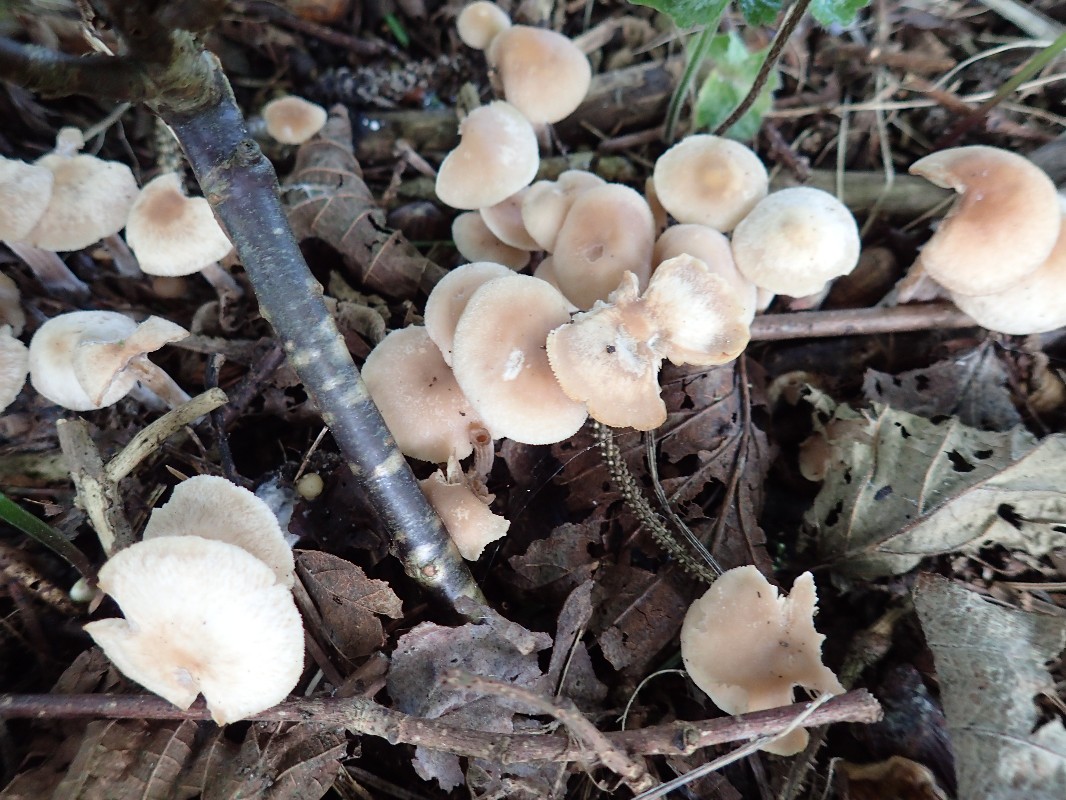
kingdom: Fungi
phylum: Basidiomycota
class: Agaricomycetes
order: Agaricales
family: Omphalotaceae
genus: Collybiopsis
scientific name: Collybiopsis confluens
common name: knippe-fladhat
